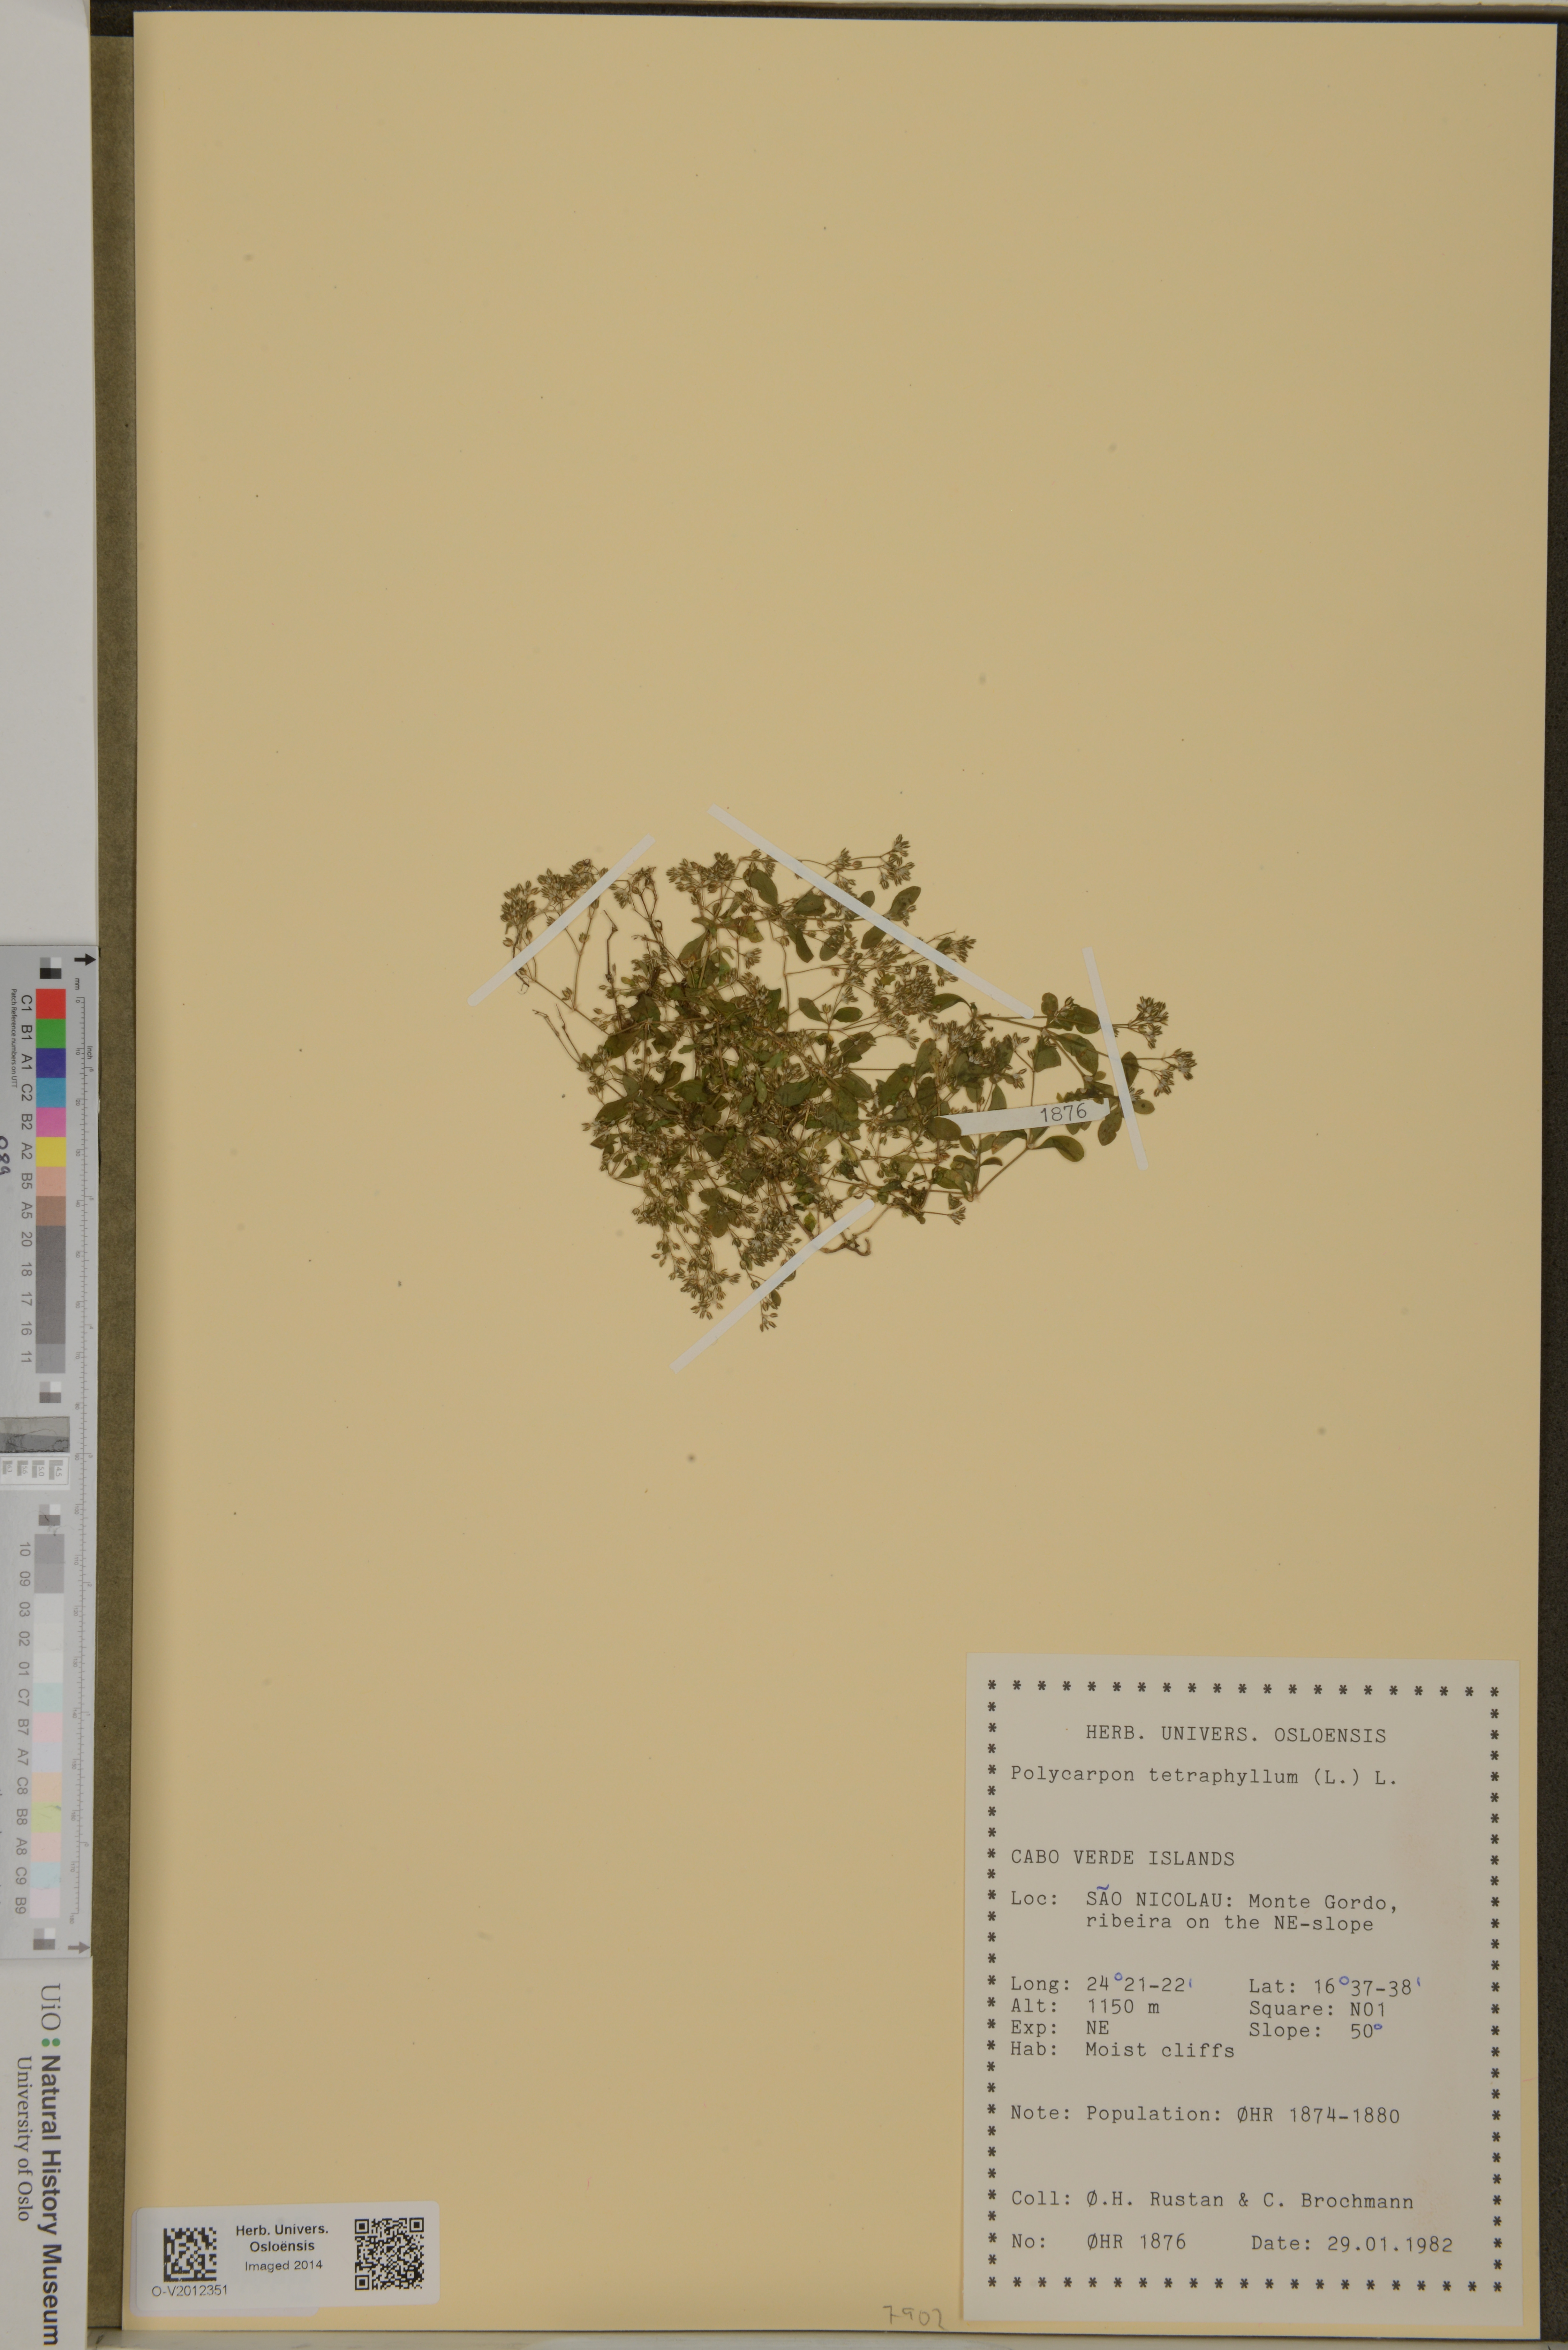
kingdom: Plantae
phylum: Tracheophyta
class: Magnoliopsida
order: Caryophyllales
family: Caryophyllaceae
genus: Polycarpon
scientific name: Polycarpon tetraphyllum
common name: Four-leaved all-seed
